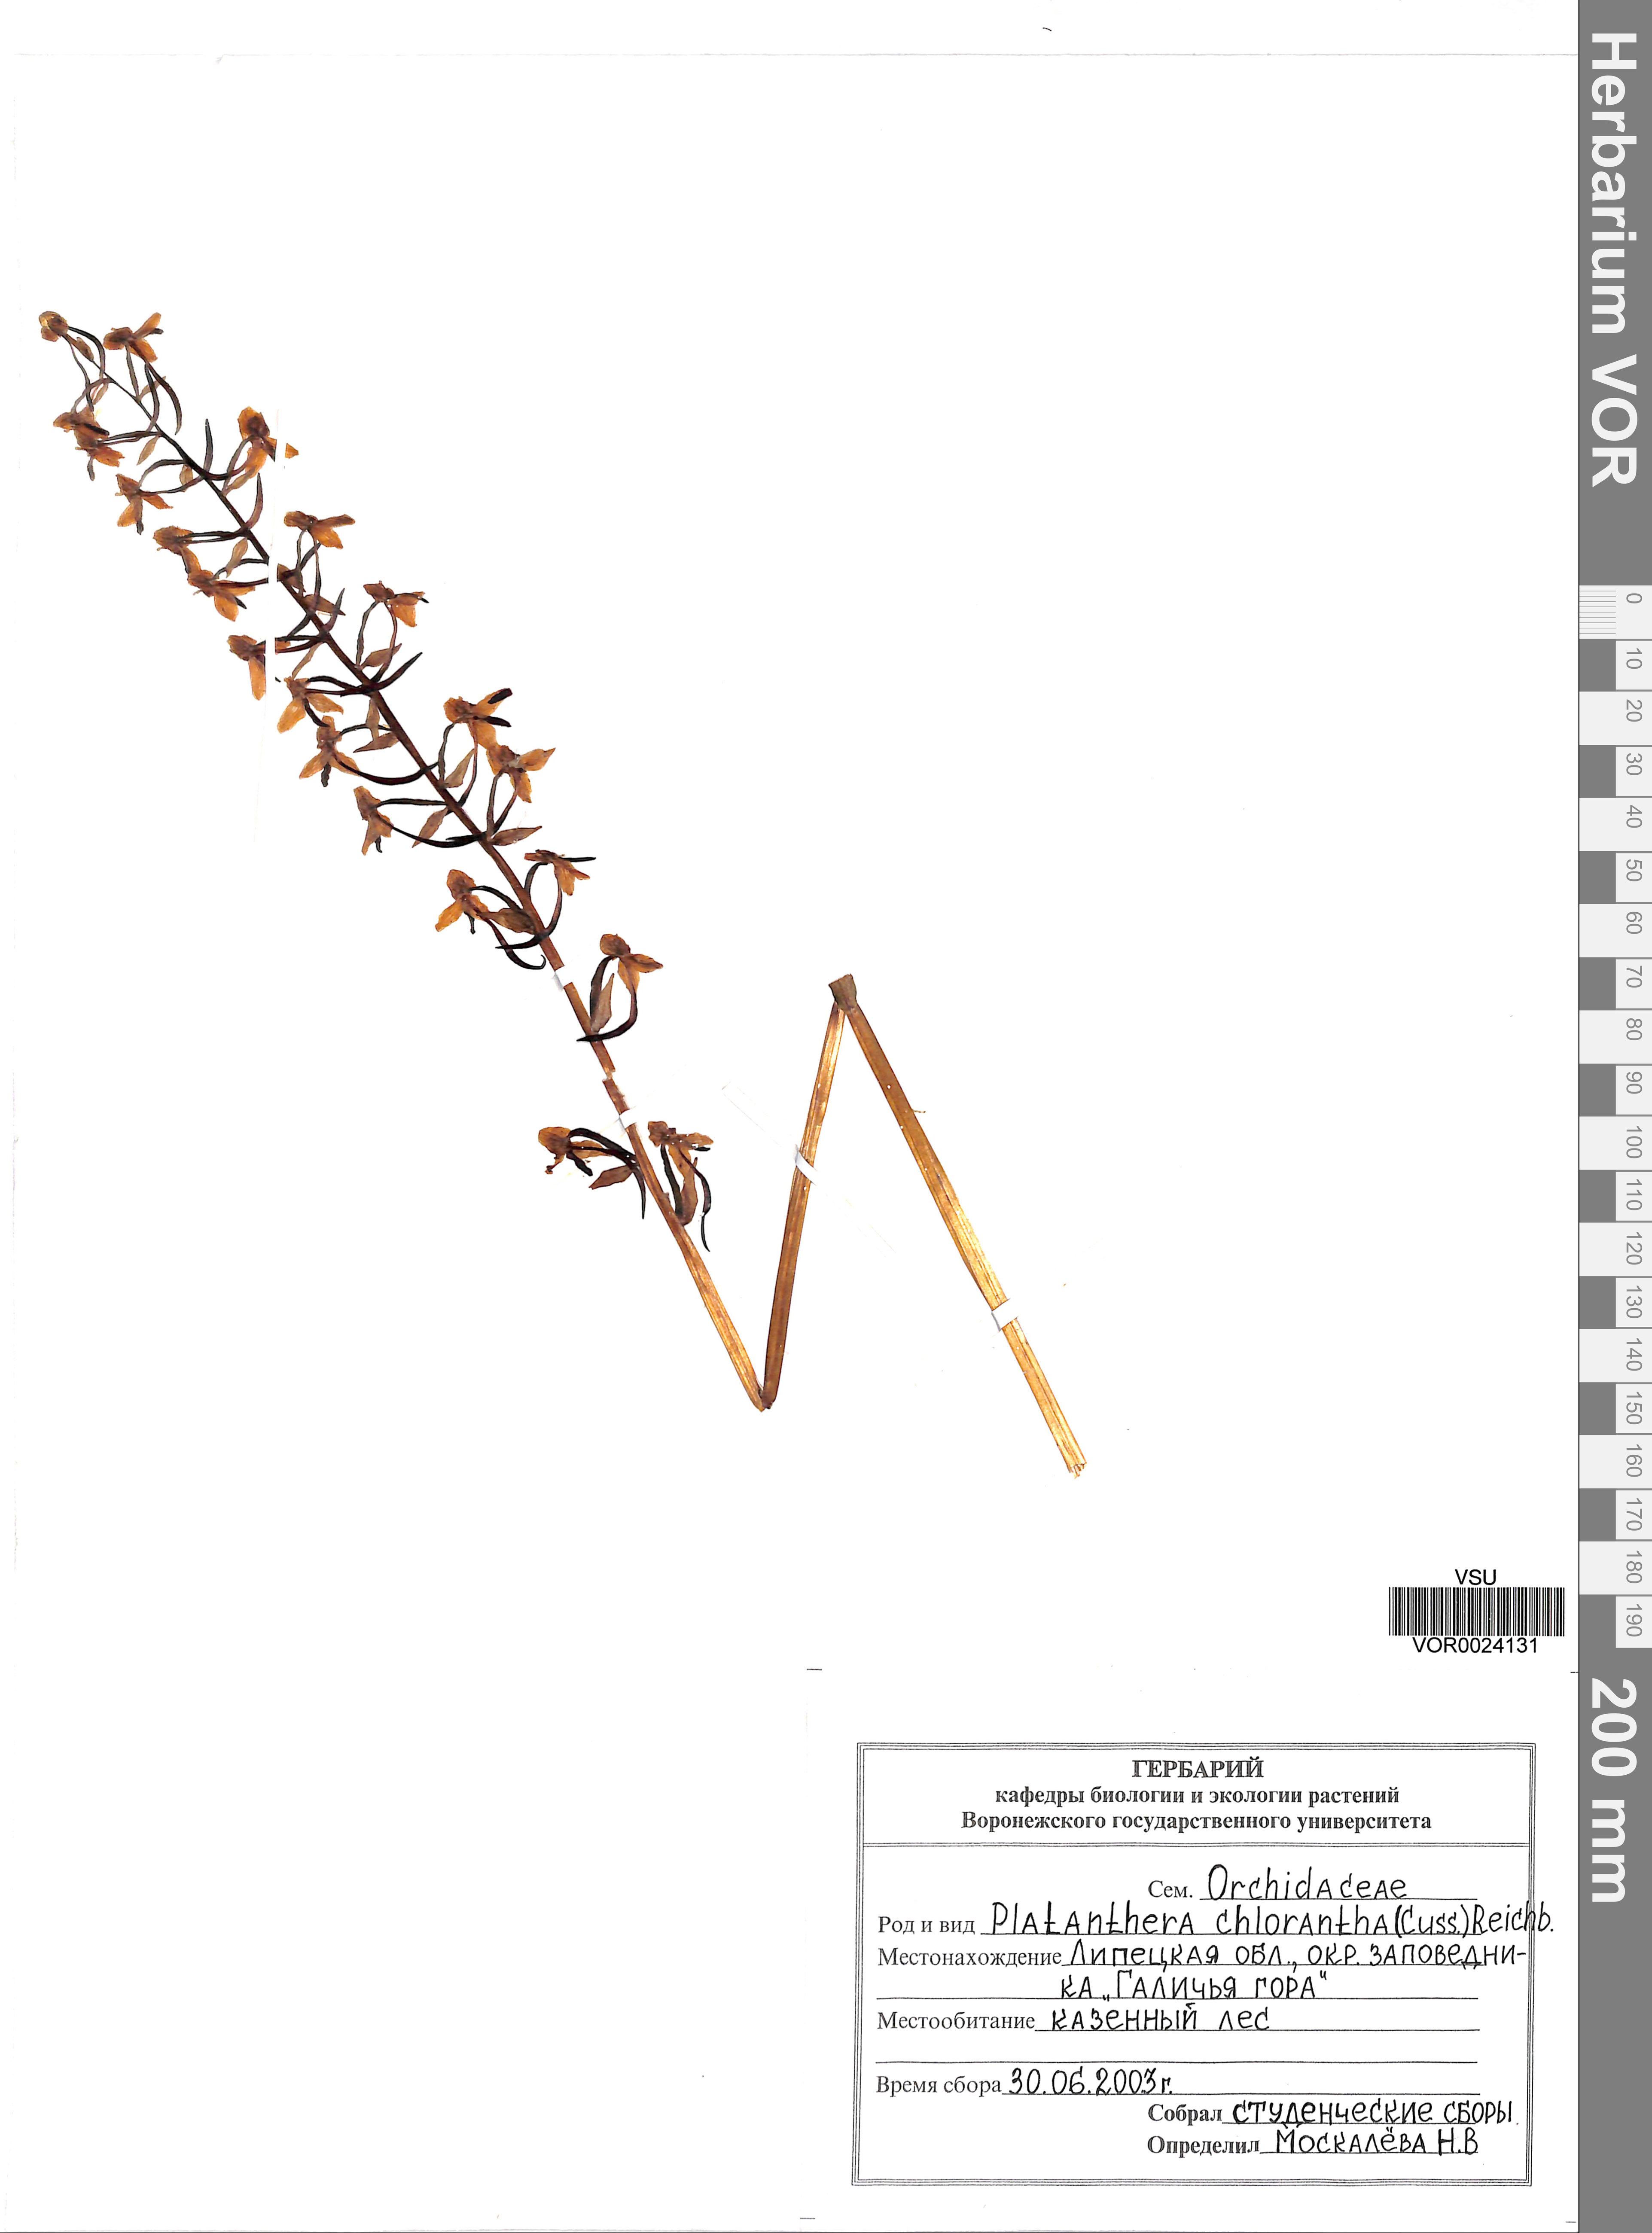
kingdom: Plantae
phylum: Tracheophyta
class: Liliopsida
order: Asparagales
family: Orchidaceae
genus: Platanthera
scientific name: Platanthera chlorantha
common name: Greater butterfly-orchid
